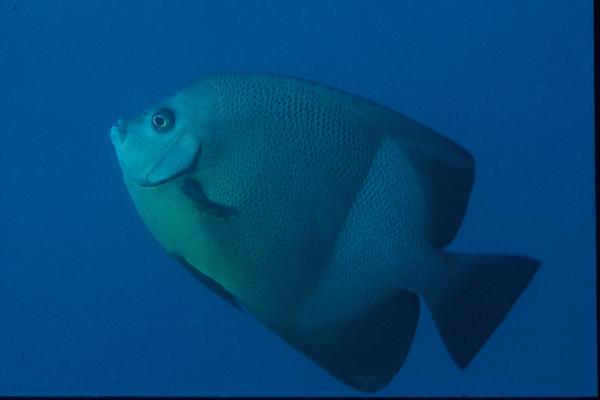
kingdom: Animalia
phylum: Chordata
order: Perciformes
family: Pomacanthidae
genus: Pomacanthus
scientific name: Pomacanthus rhomboides
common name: Old woman
